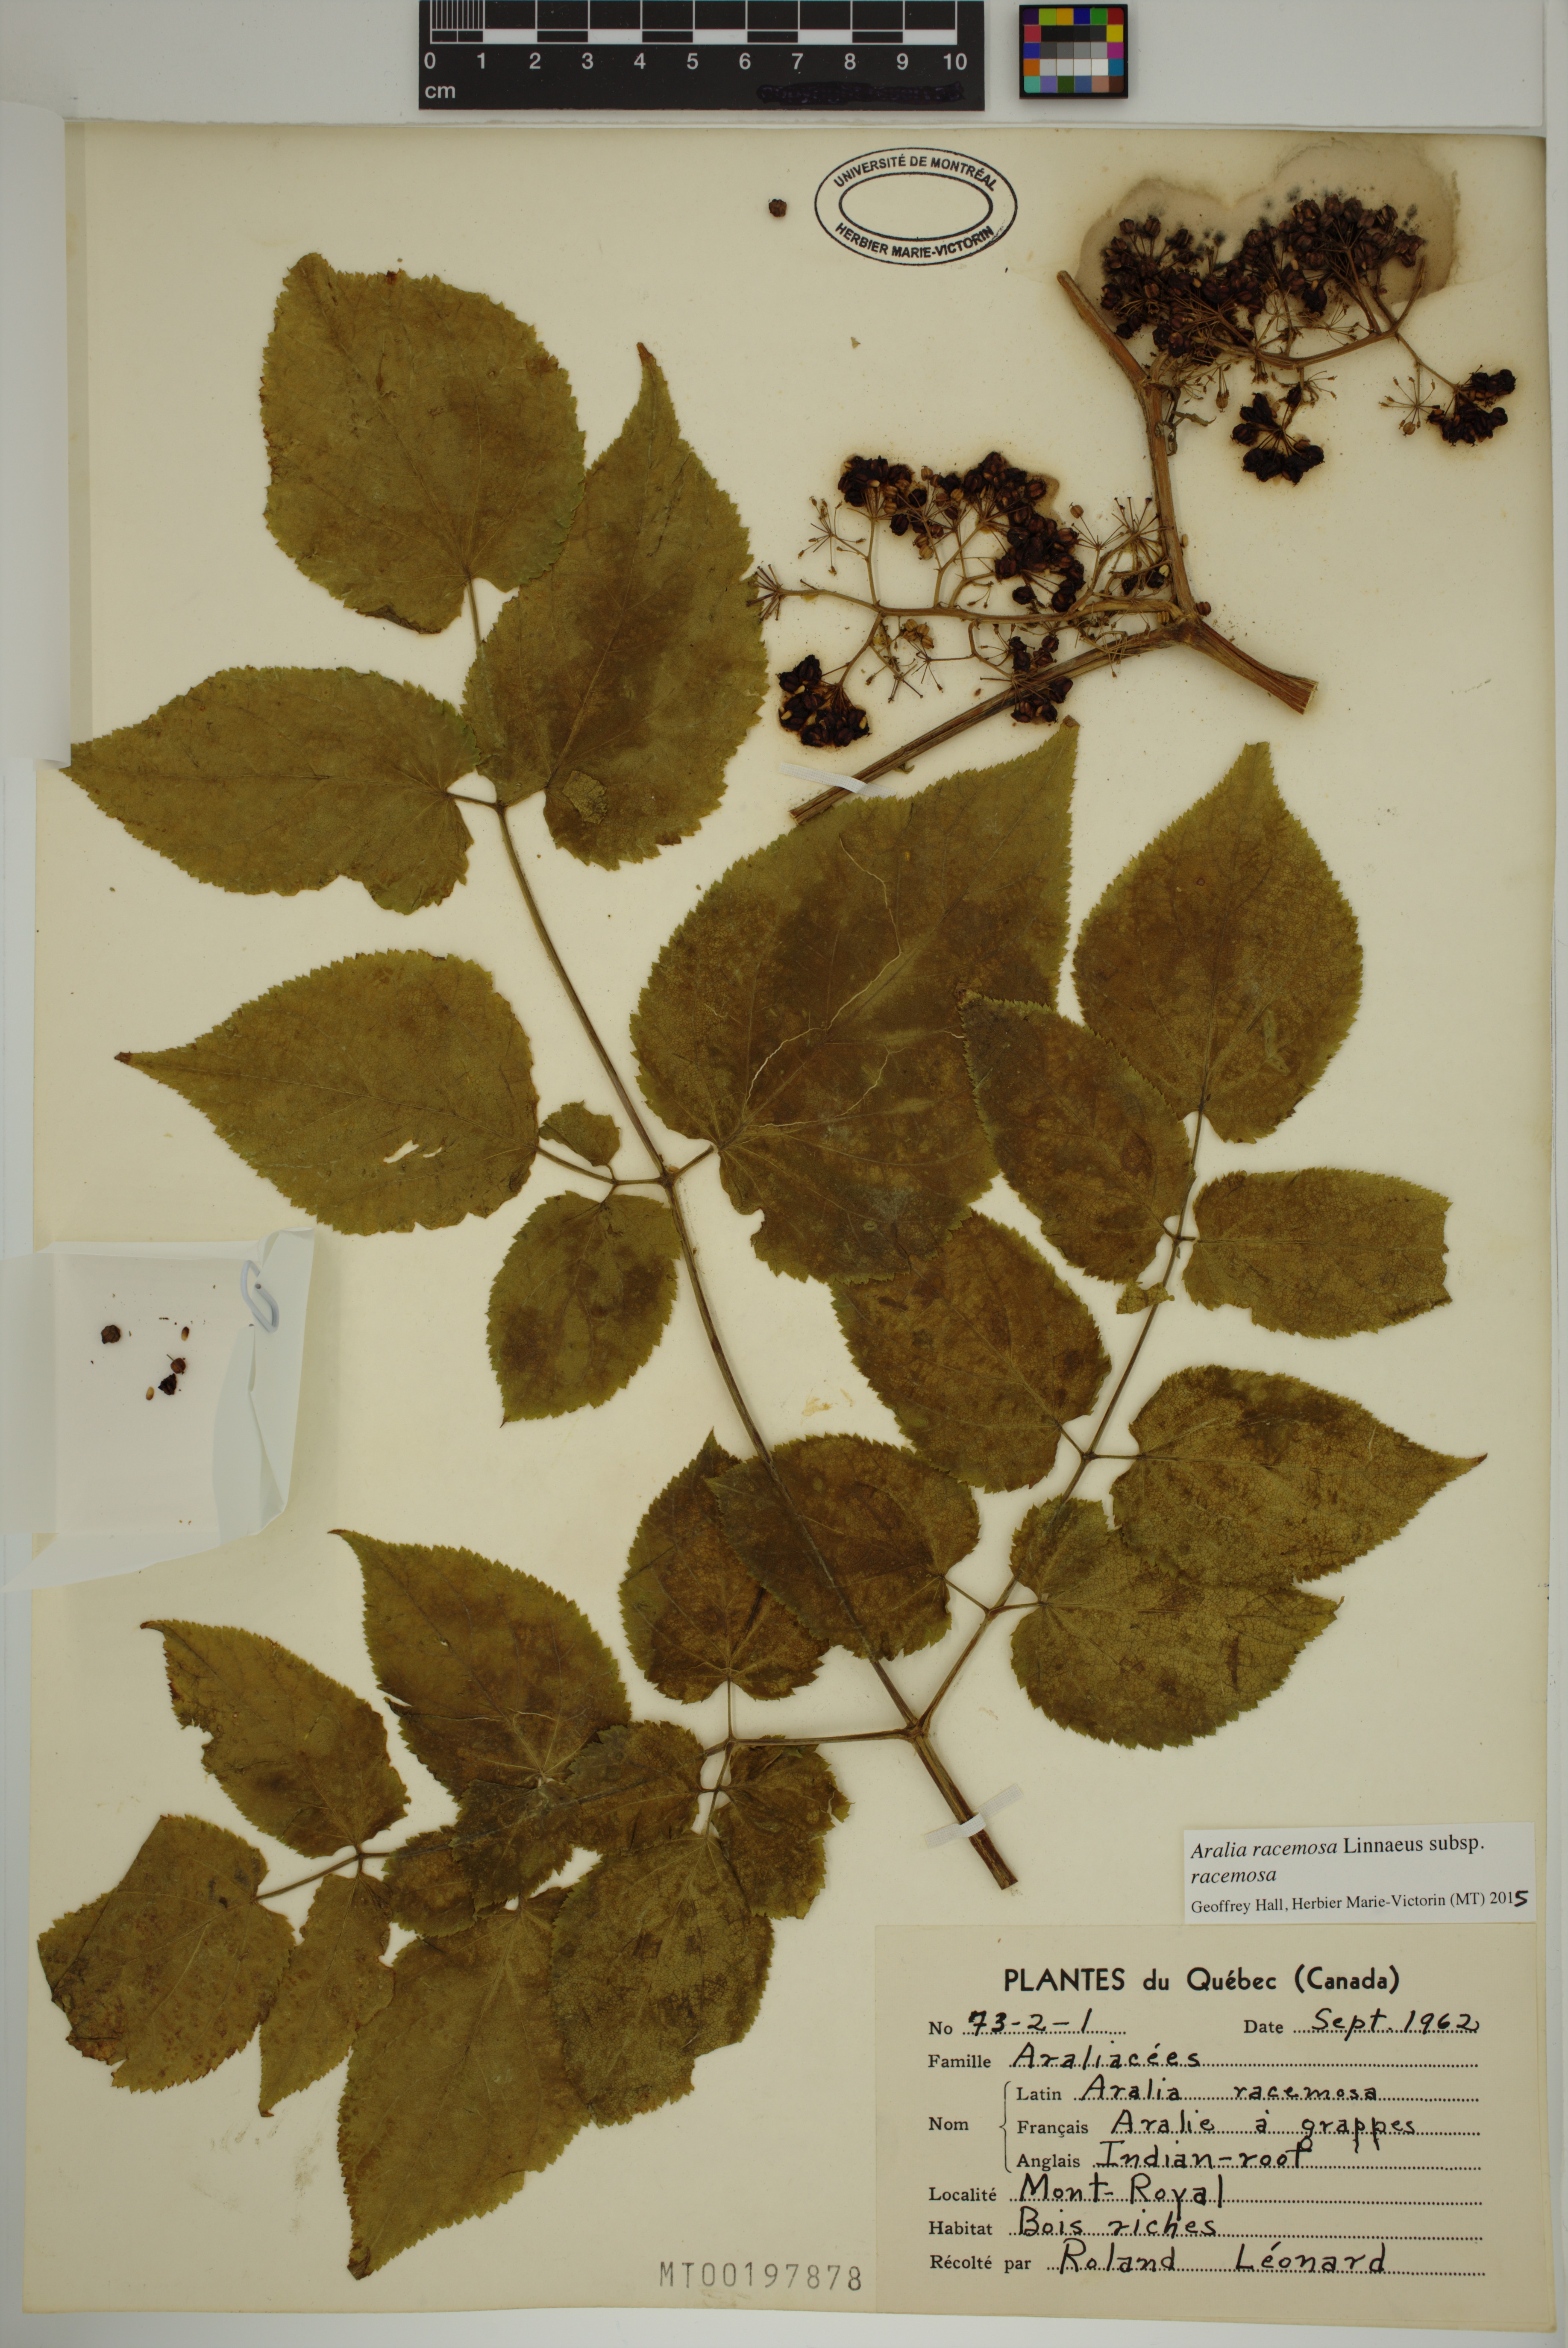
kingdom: Plantae
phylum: Tracheophyta
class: Magnoliopsida
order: Apiales
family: Araliaceae
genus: Aralia
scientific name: Aralia racemosa
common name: American-spikenard
